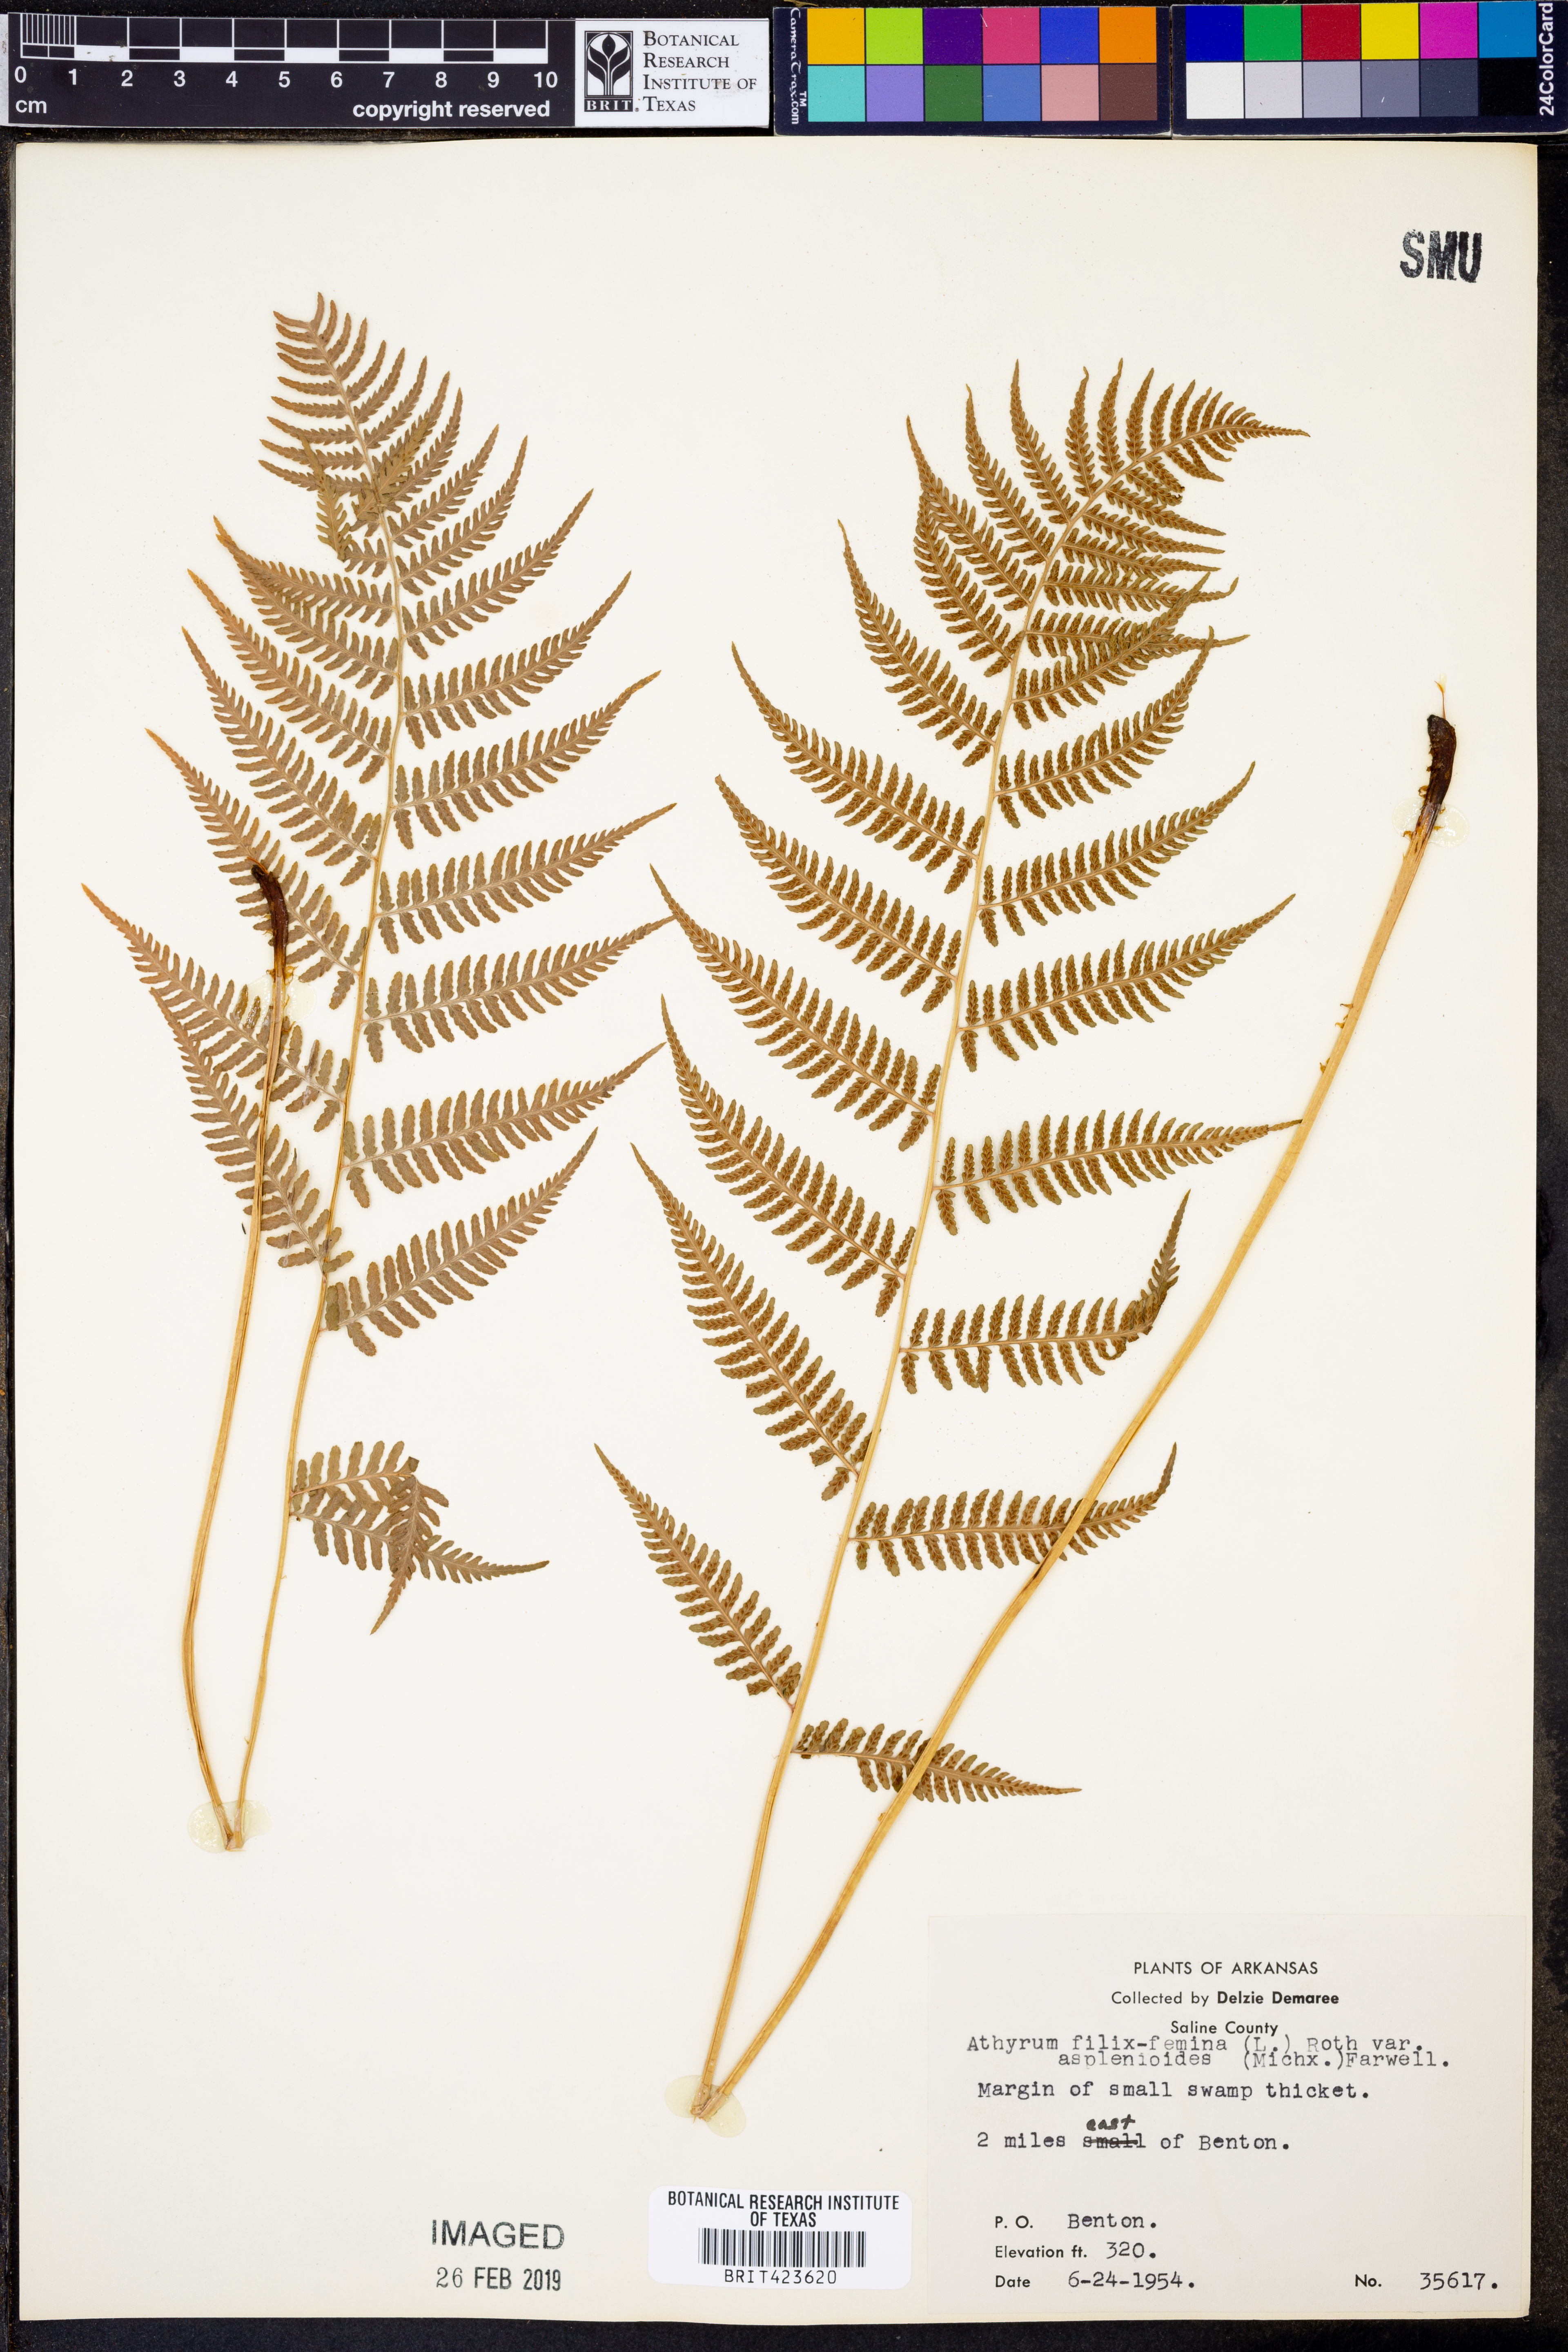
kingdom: Plantae
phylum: Tracheophyta
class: Polypodiopsida
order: Polypodiales
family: Athyriaceae
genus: Athyrium
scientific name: Athyrium asplenioides
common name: Southern lady fern
